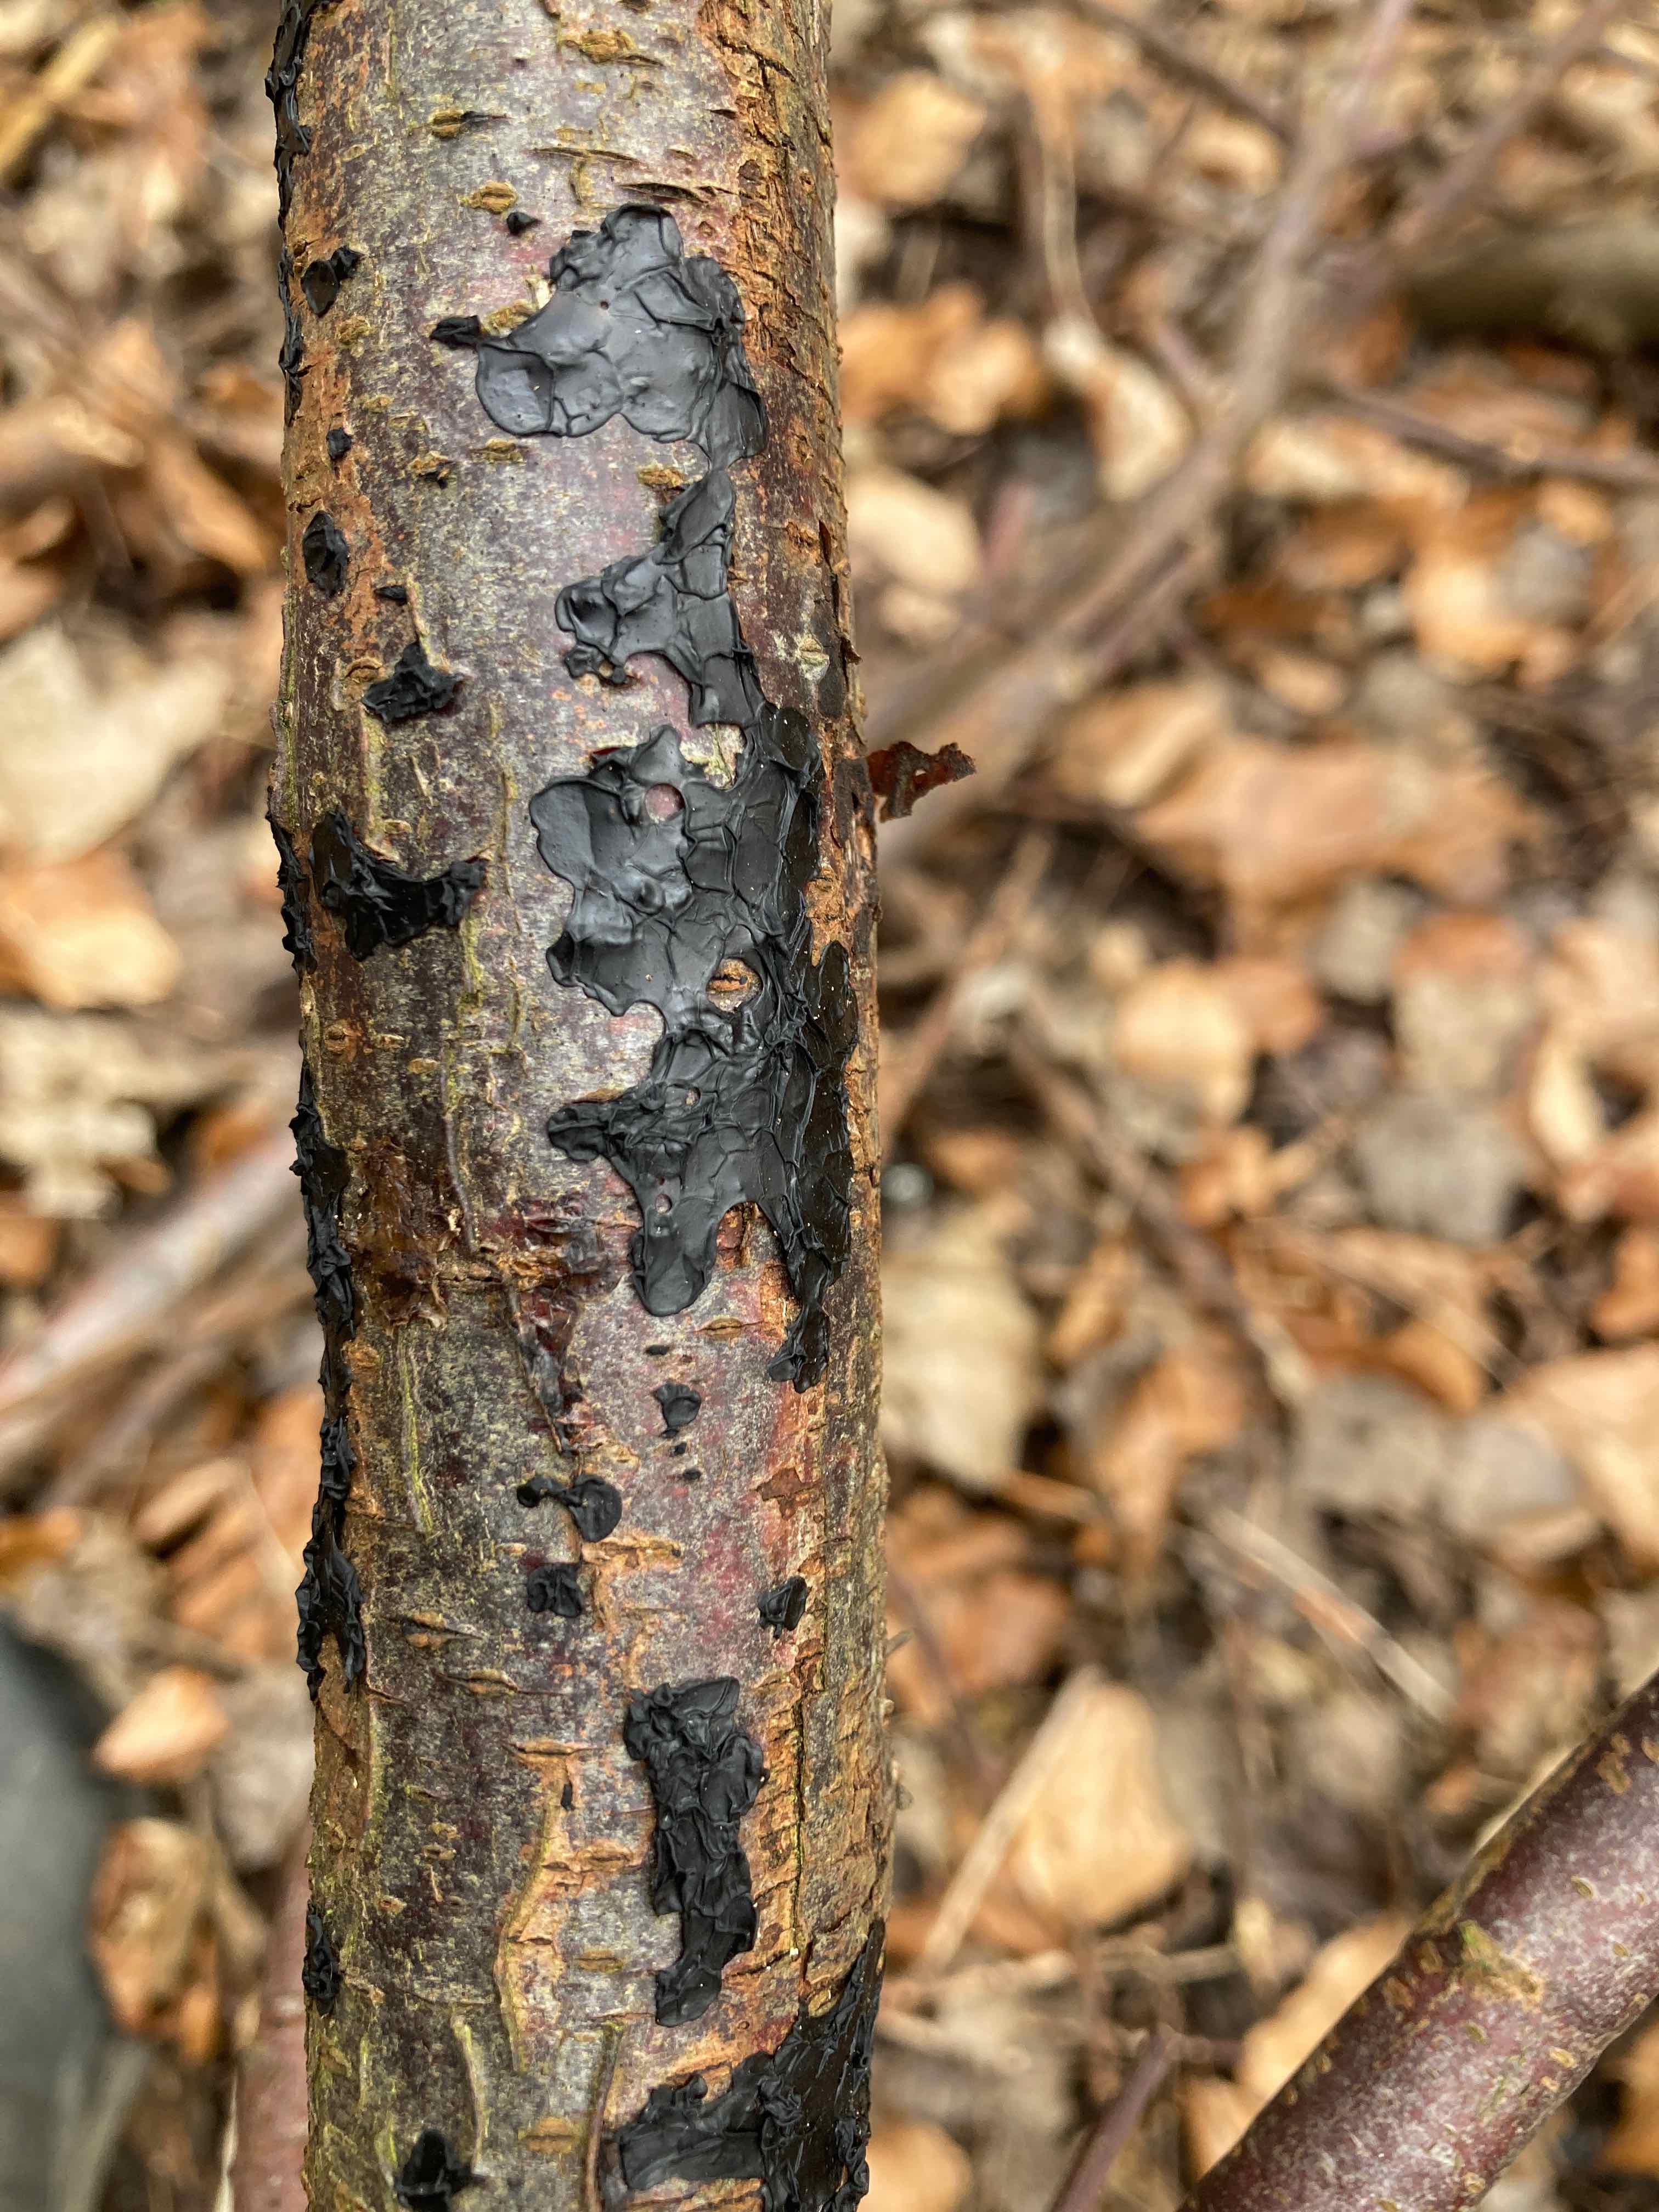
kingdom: Fungi
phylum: Basidiomycota
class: Agaricomycetes
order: Auriculariales
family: Auriculariaceae
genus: Exidia
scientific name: Exidia nigricans
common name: almindelig bævretop
